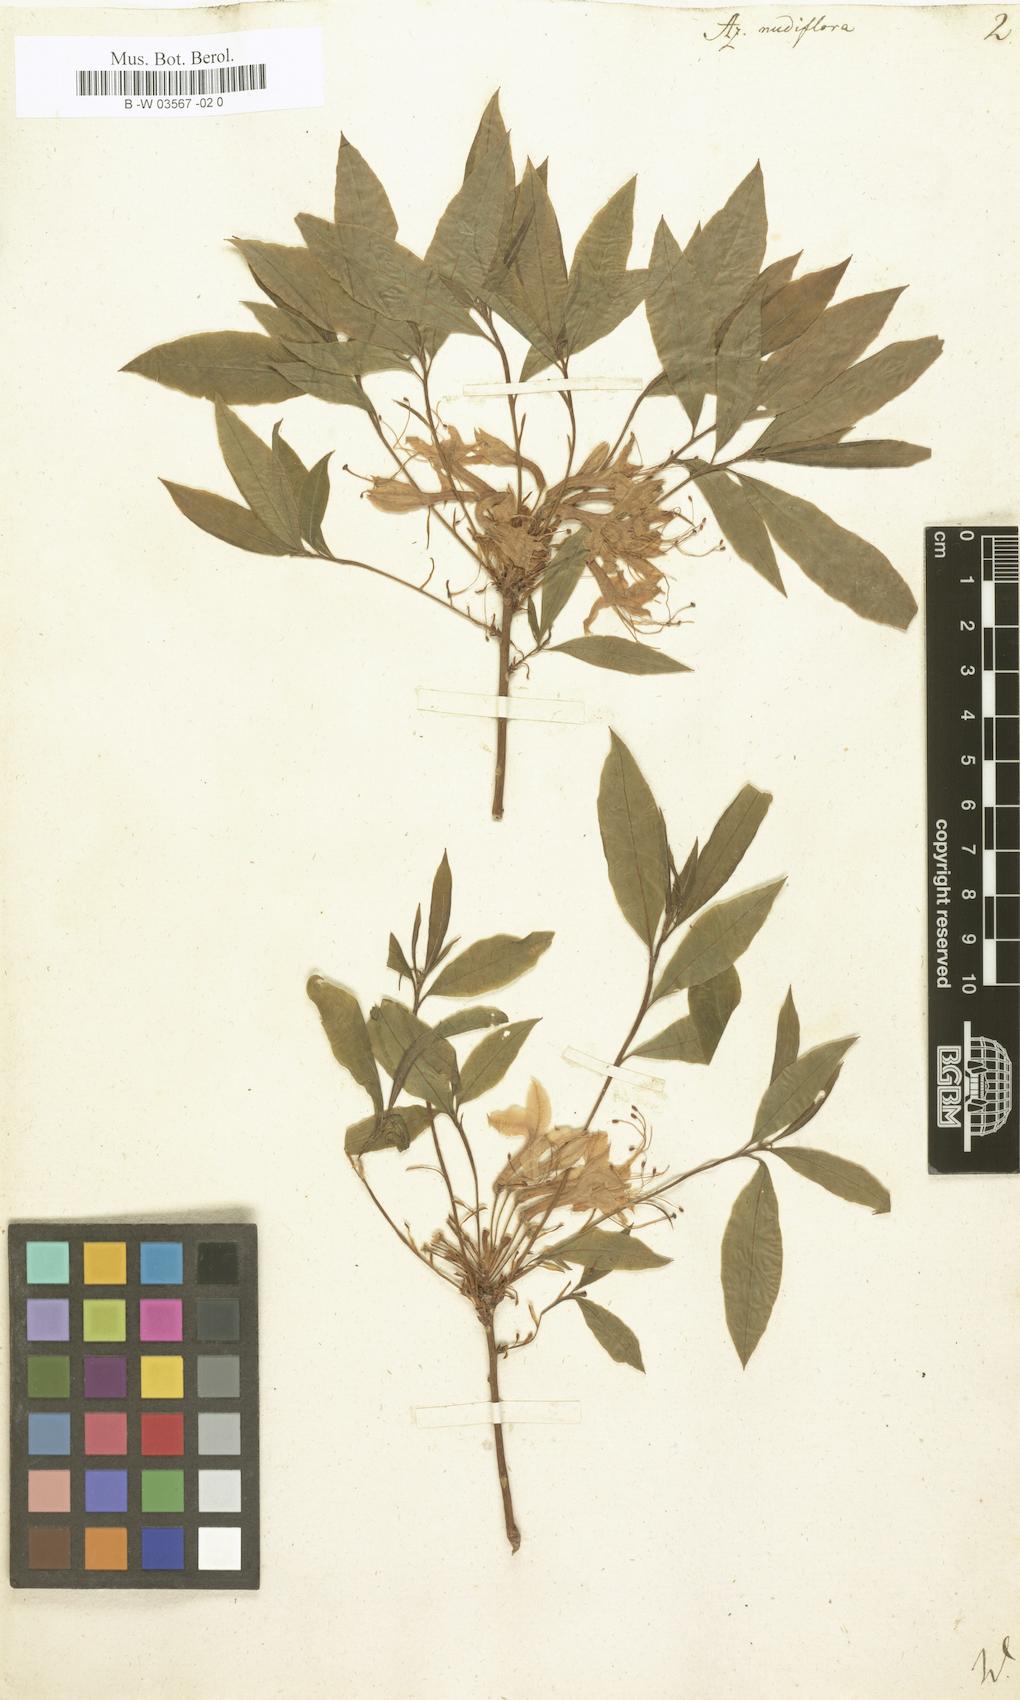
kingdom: Plantae
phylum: Tracheophyta
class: Magnoliopsida
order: Ericales
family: Ericaceae
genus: Rhododendron
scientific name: Rhododendron periclymenoides
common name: Election-pink
